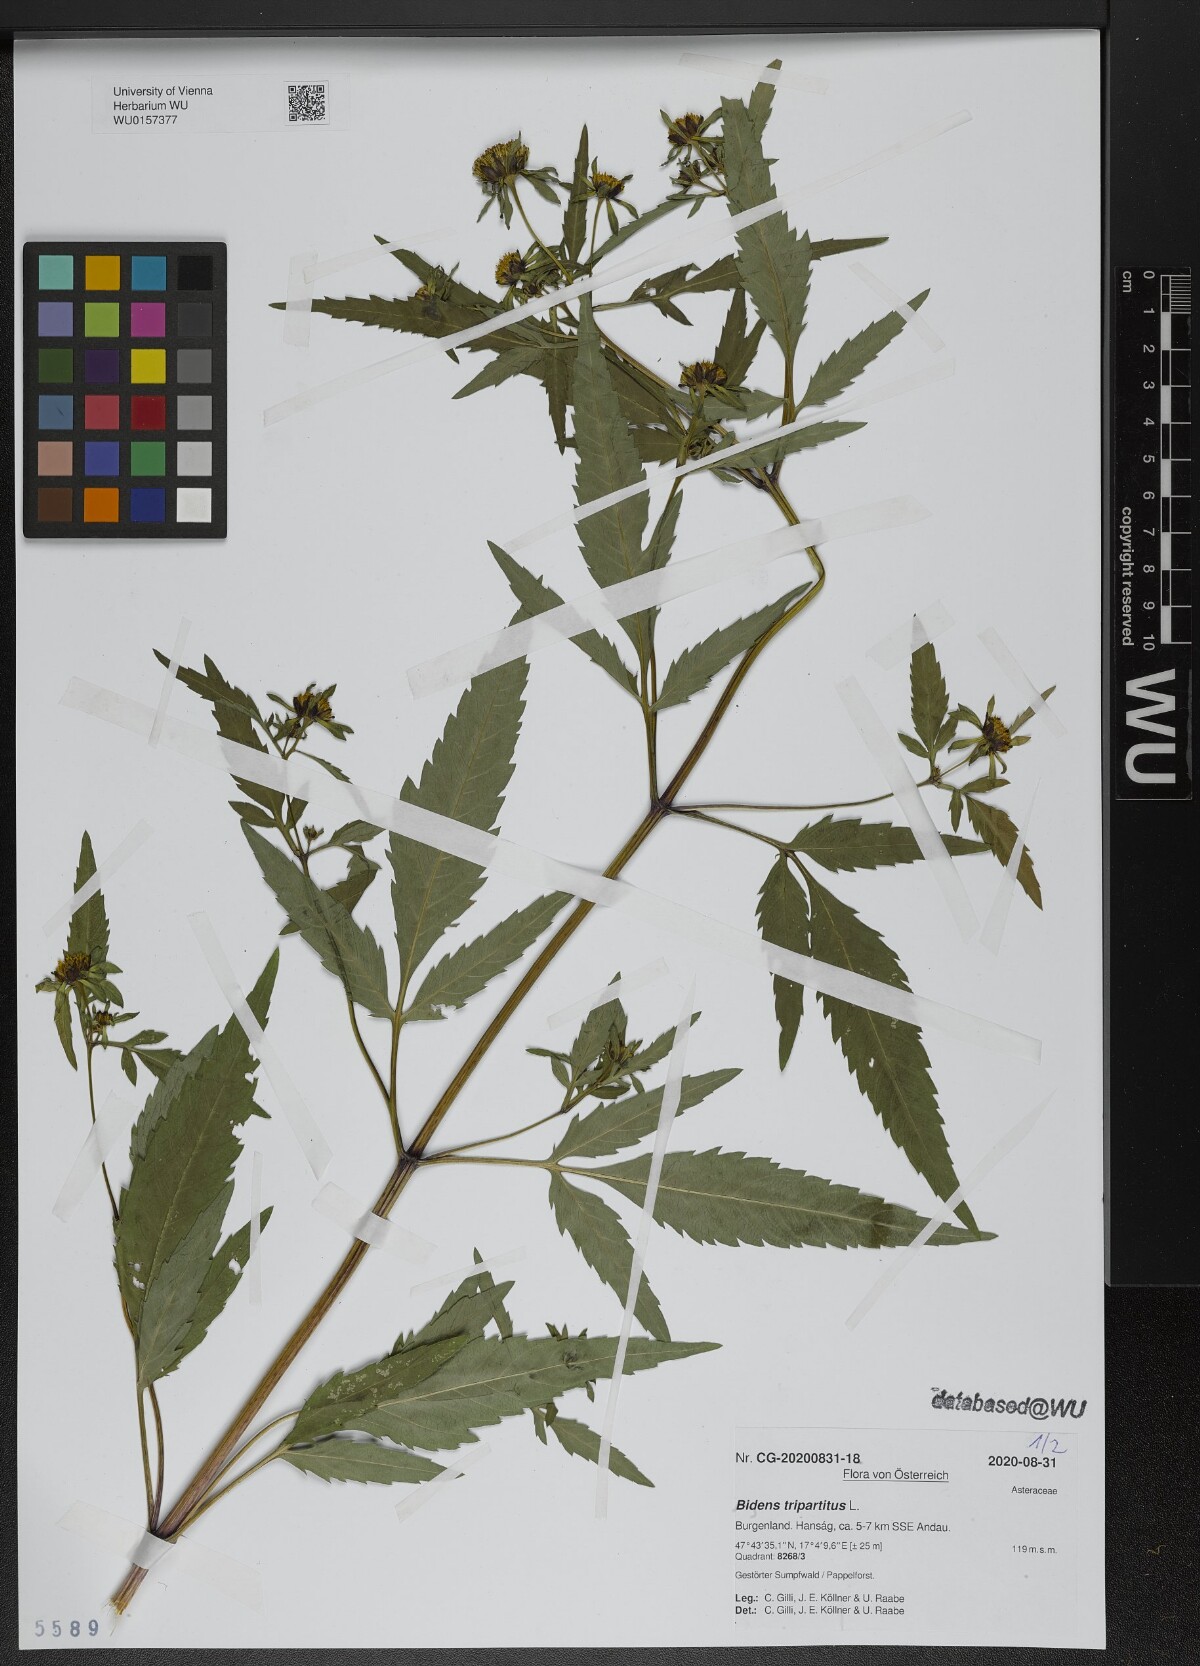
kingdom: Plantae
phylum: Tracheophyta
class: Magnoliopsida
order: Asterales
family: Asteraceae
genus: Bidens
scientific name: Bidens tripartita
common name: Trifid bur-marigold
